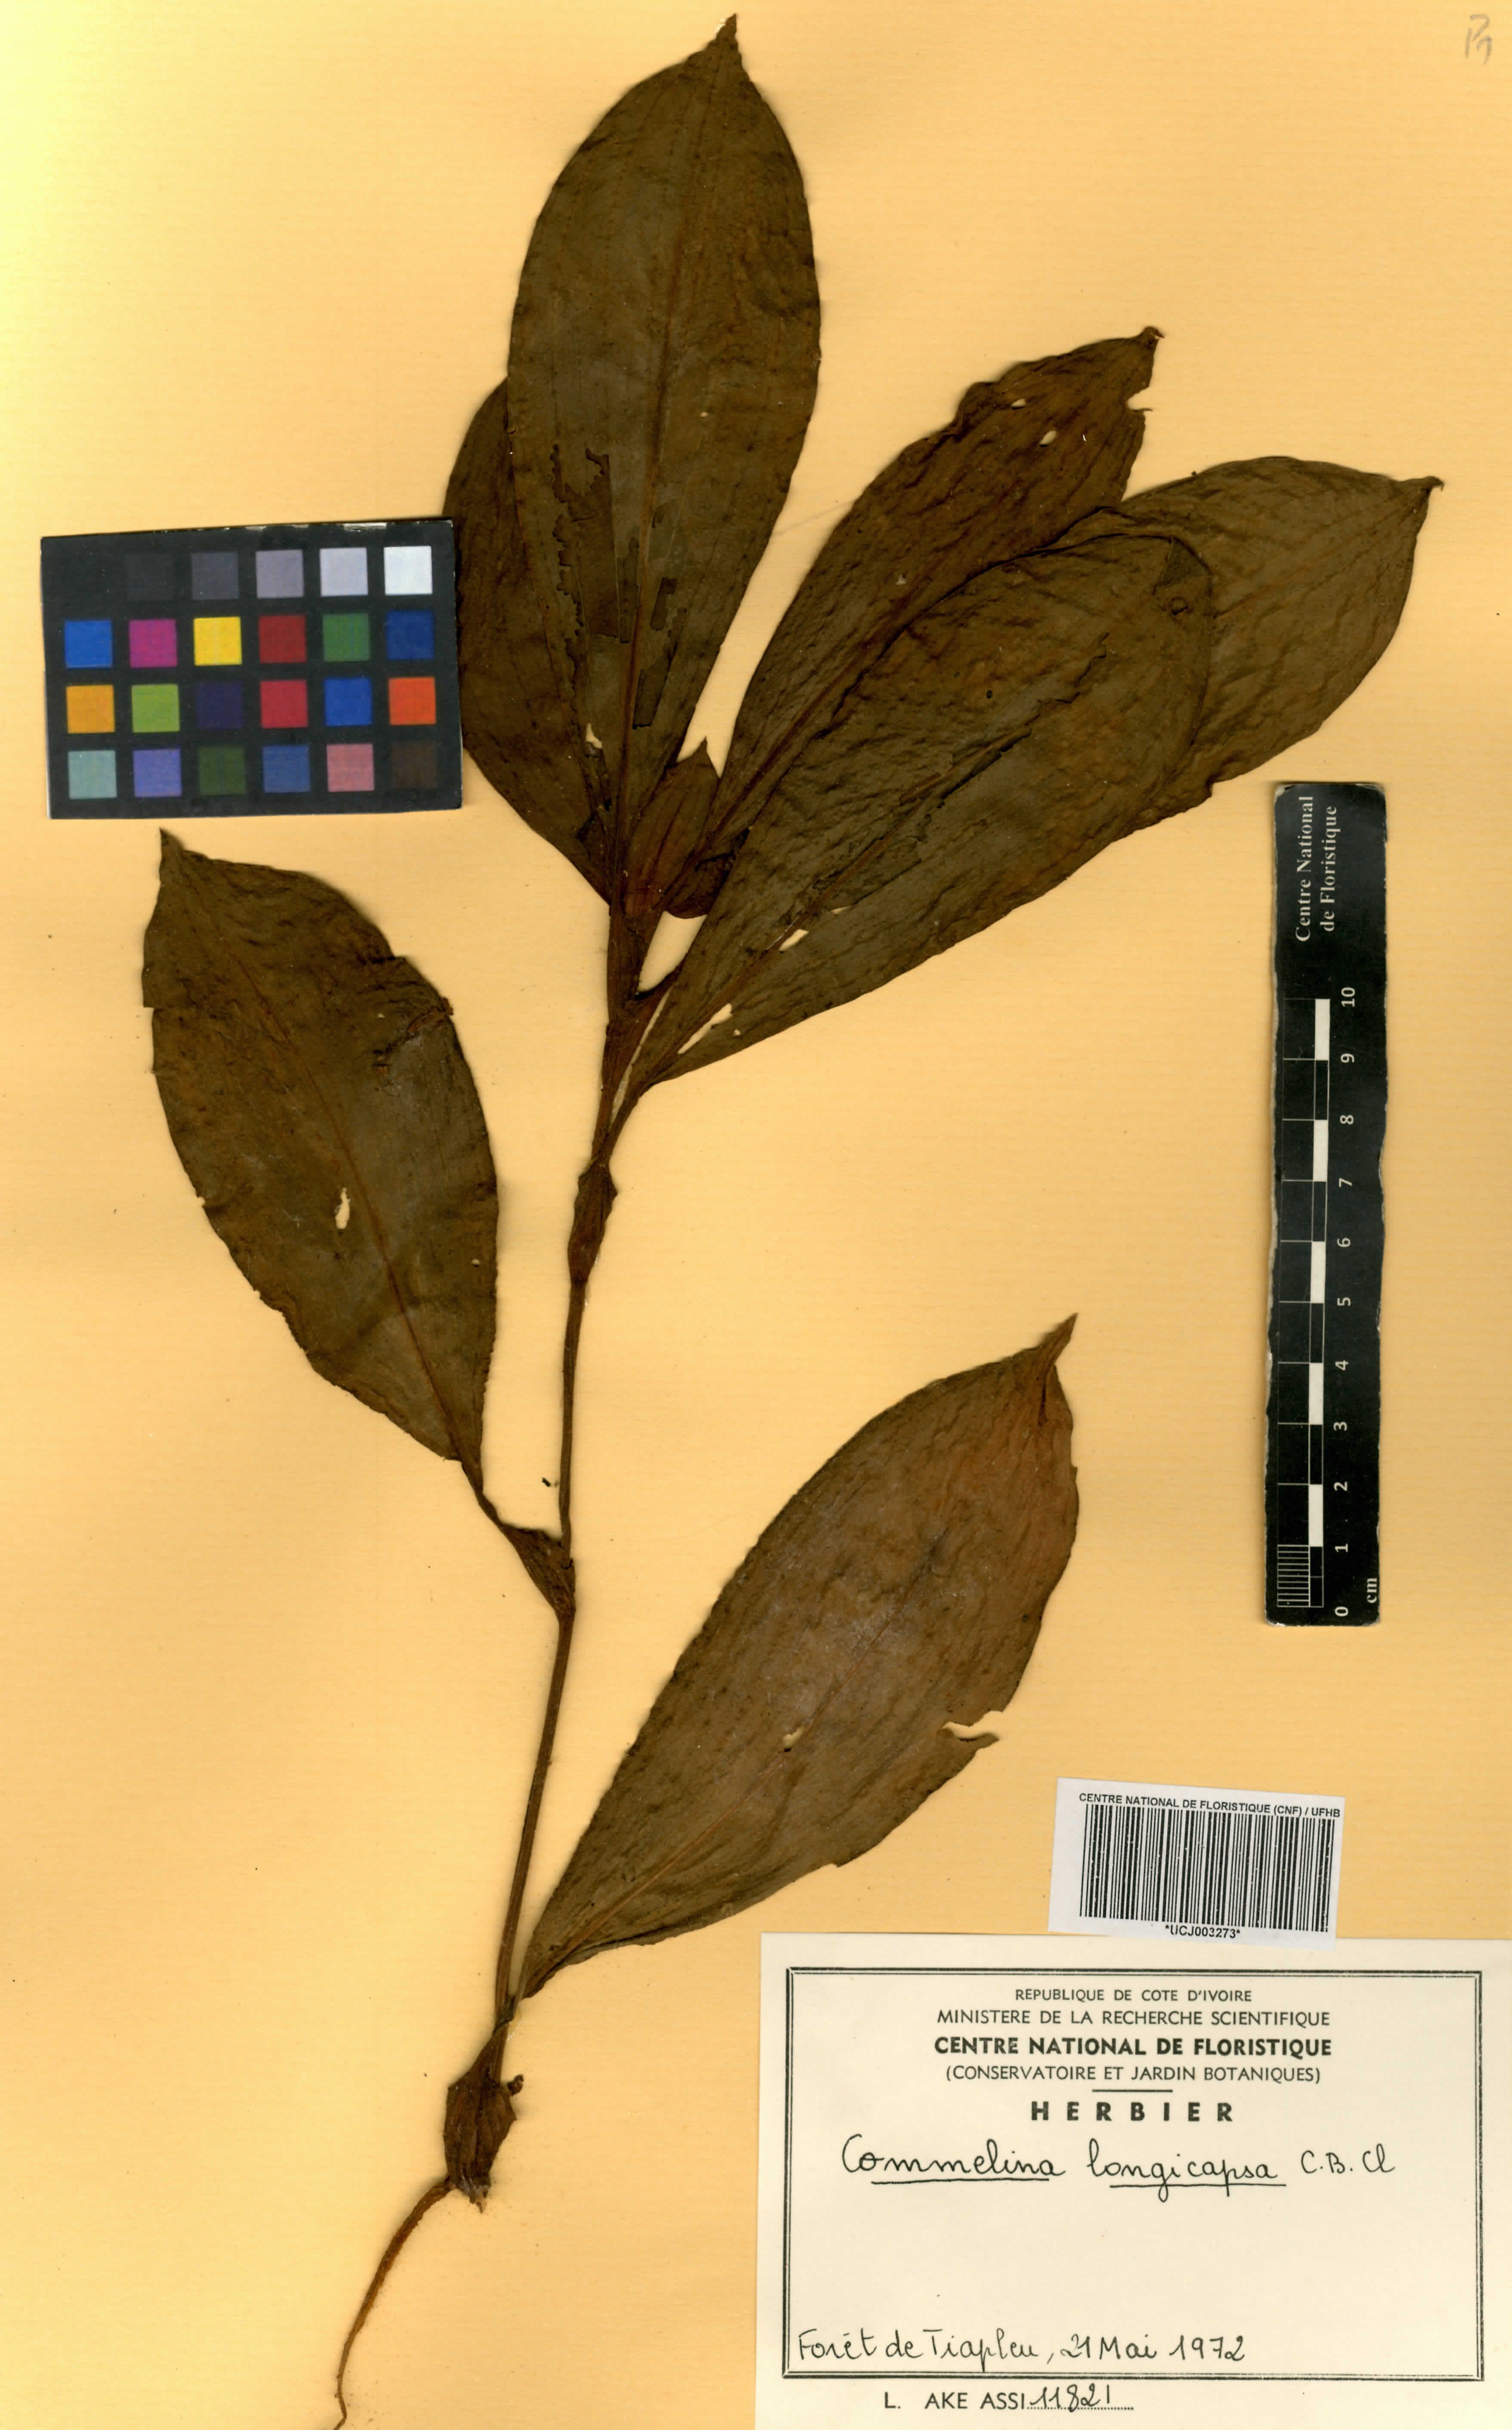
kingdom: Plantae
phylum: Tracheophyta
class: Liliopsida
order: Commelinales
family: Commelinaceae
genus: Commelina
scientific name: Commelina longicapsa
